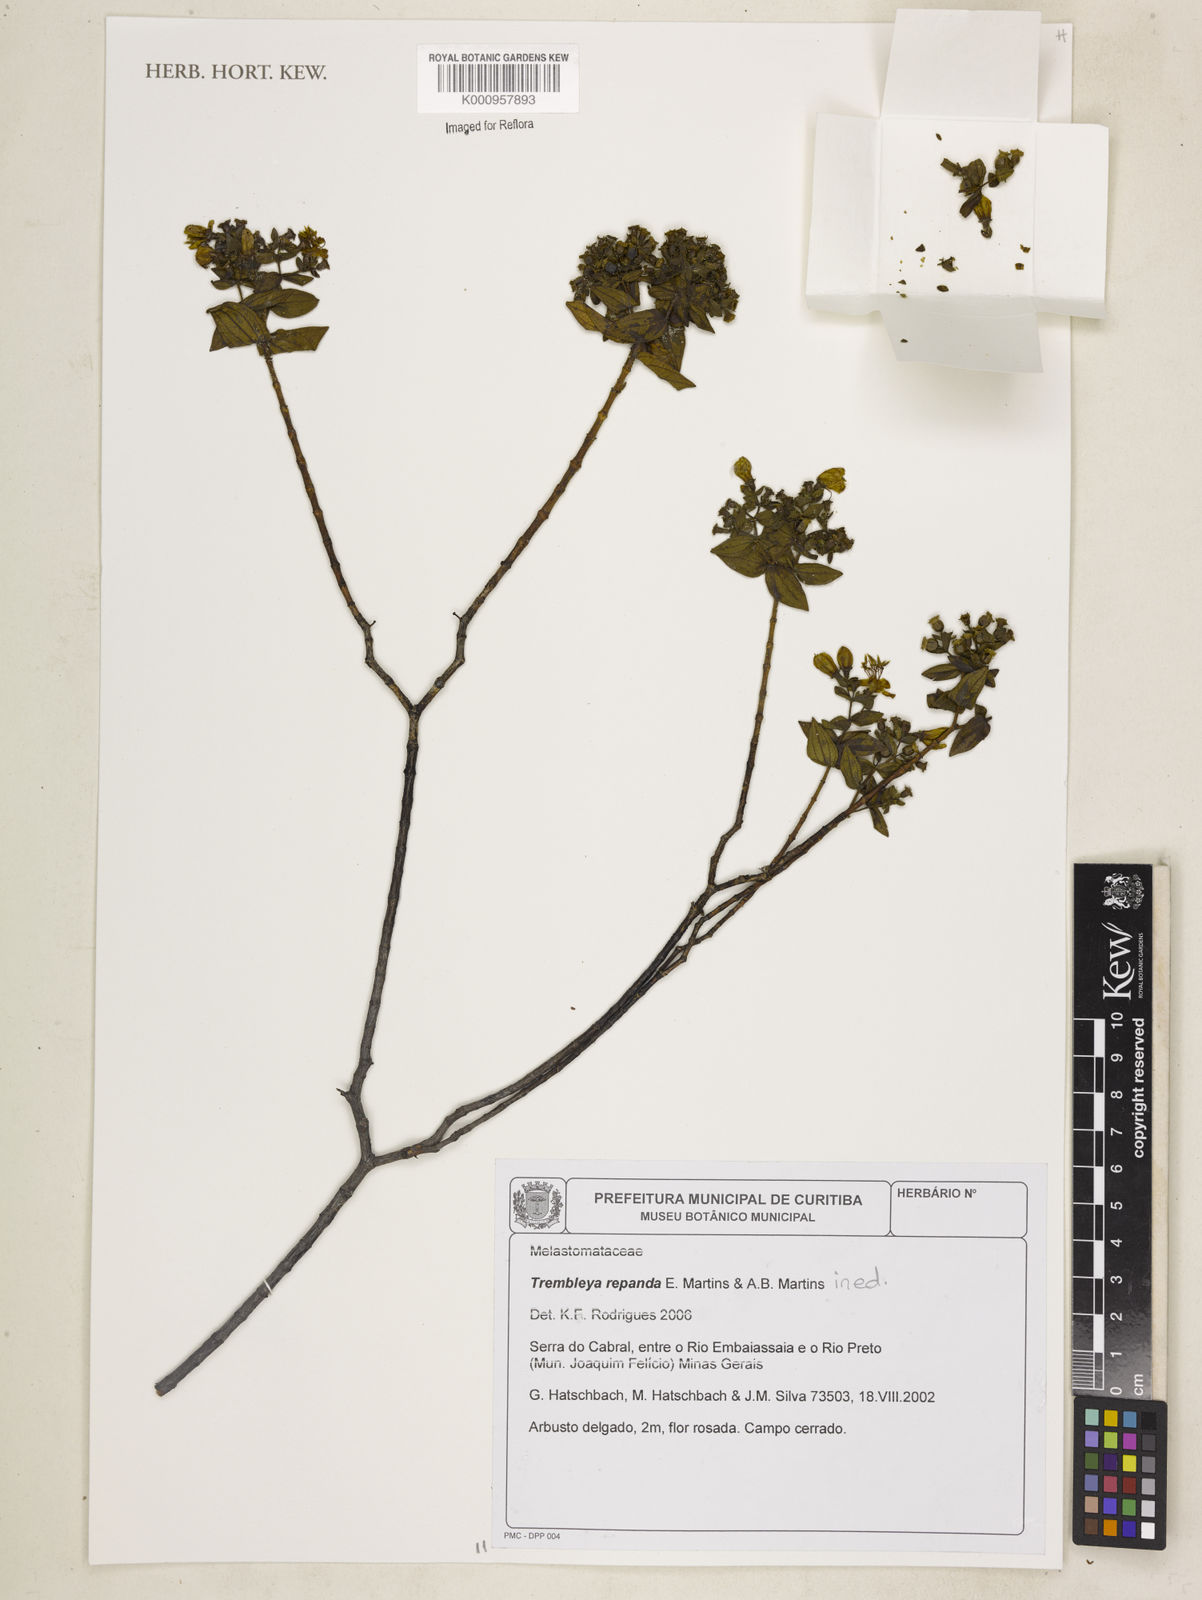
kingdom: Plantae
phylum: Tracheophyta
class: Magnoliopsida
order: Myrtales
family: Melastomataceae
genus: Microlicia
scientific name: Microlicia
